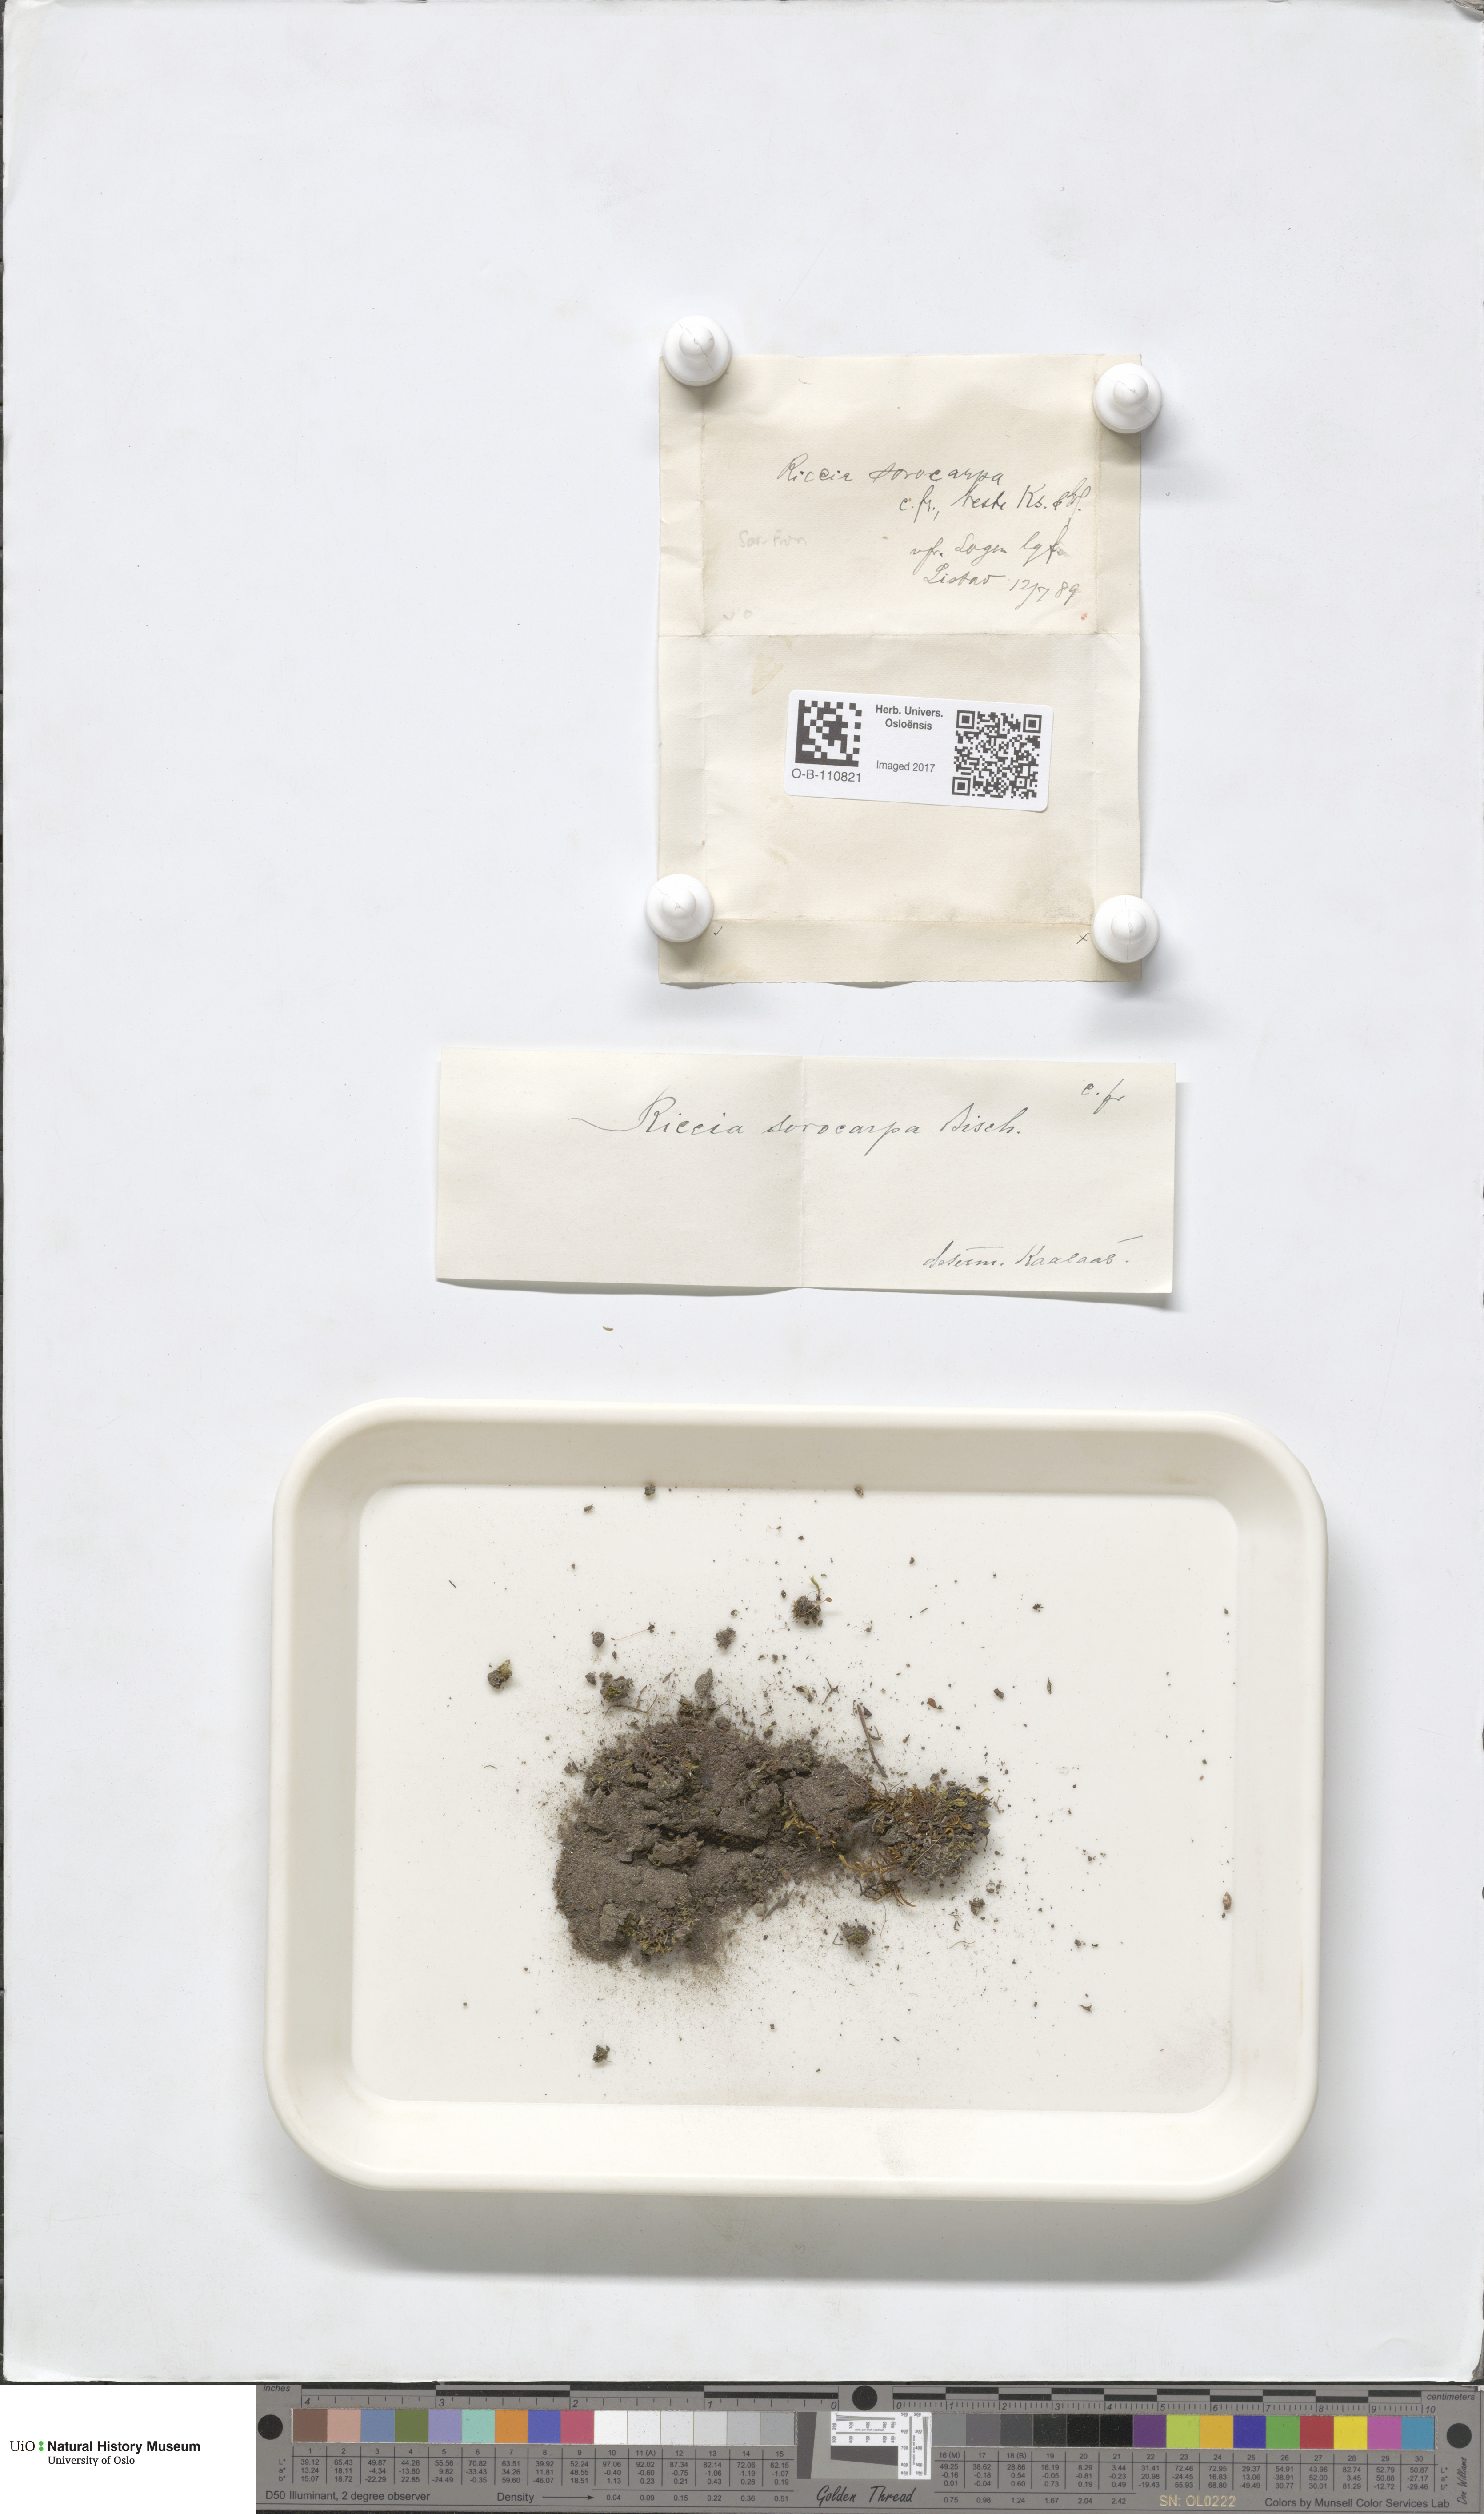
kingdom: Plantae
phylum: Marchantiophyta
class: Marchantiopsida
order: Marchantiales
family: Ricciaceae
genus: Riccia
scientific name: Riccia sorocarpa
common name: Common crystalwort
